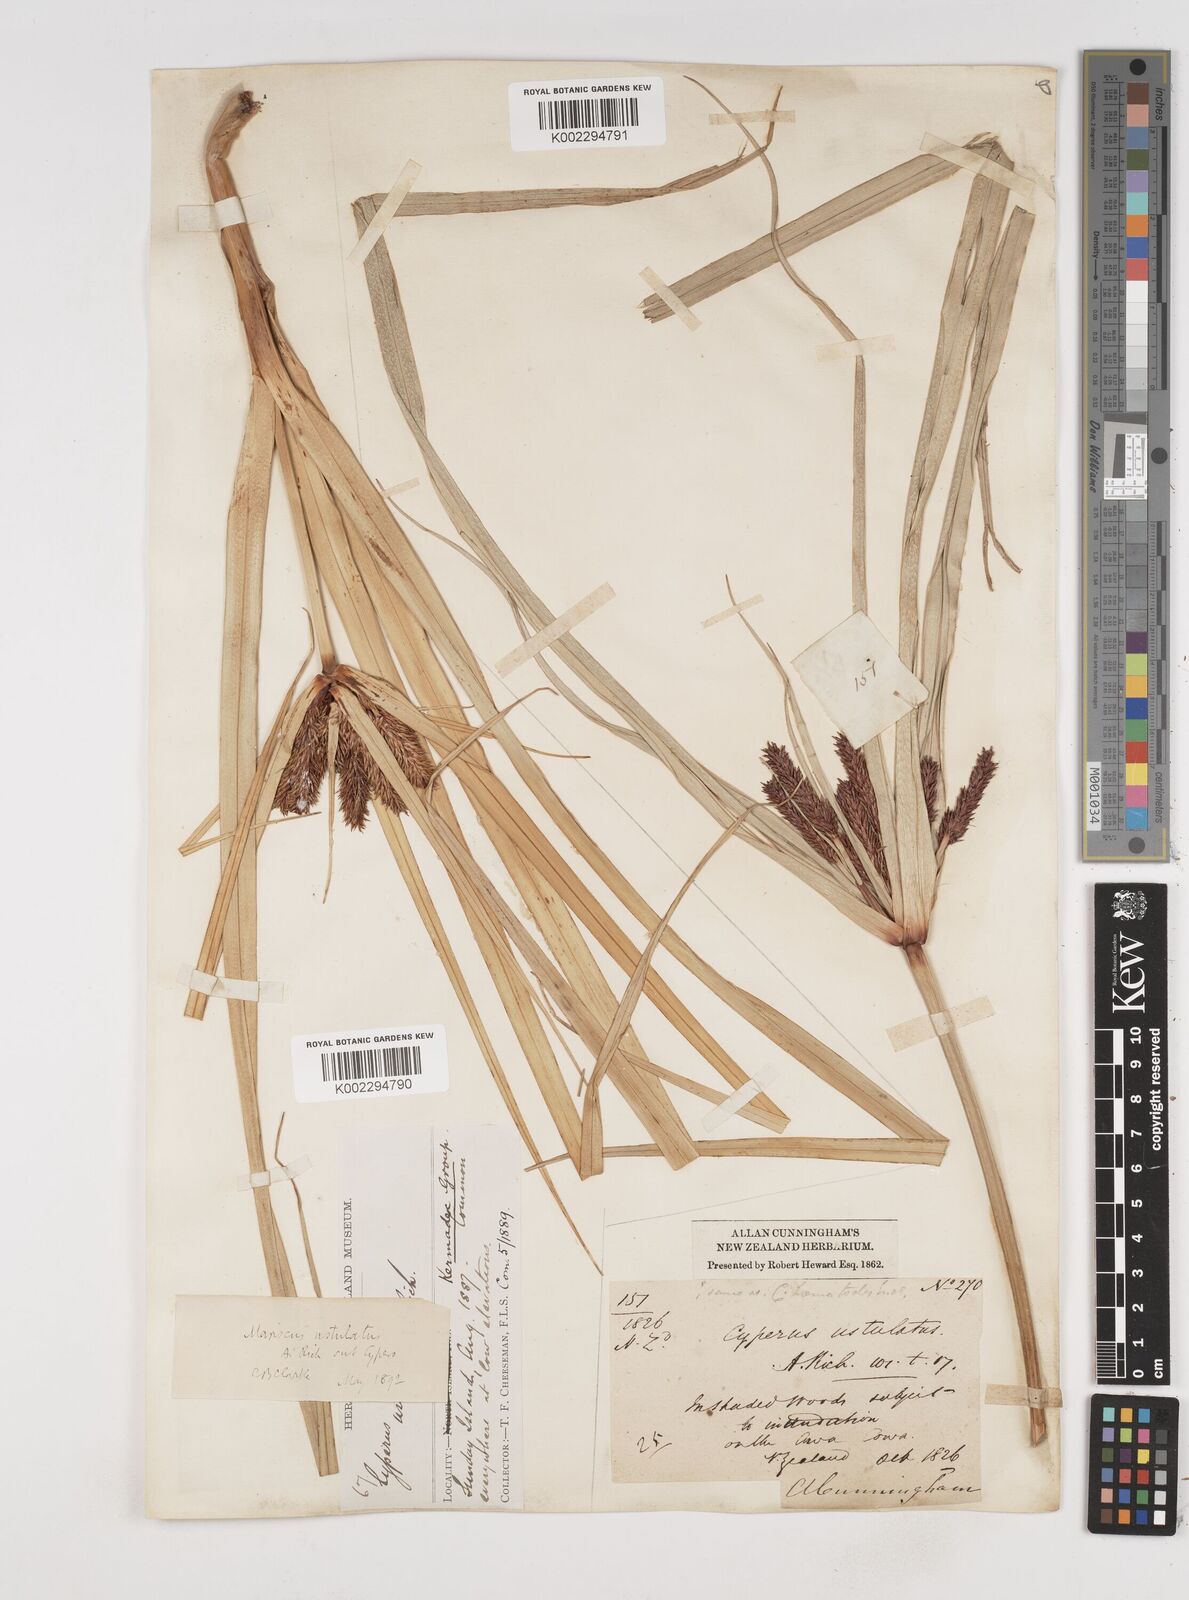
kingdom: Plantae
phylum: Tracheophyta
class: Liliopsida
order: Poales
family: Cyperaceae
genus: Cyperus
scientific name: Cyperus ustulatus
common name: Giant umbrella-sedge
